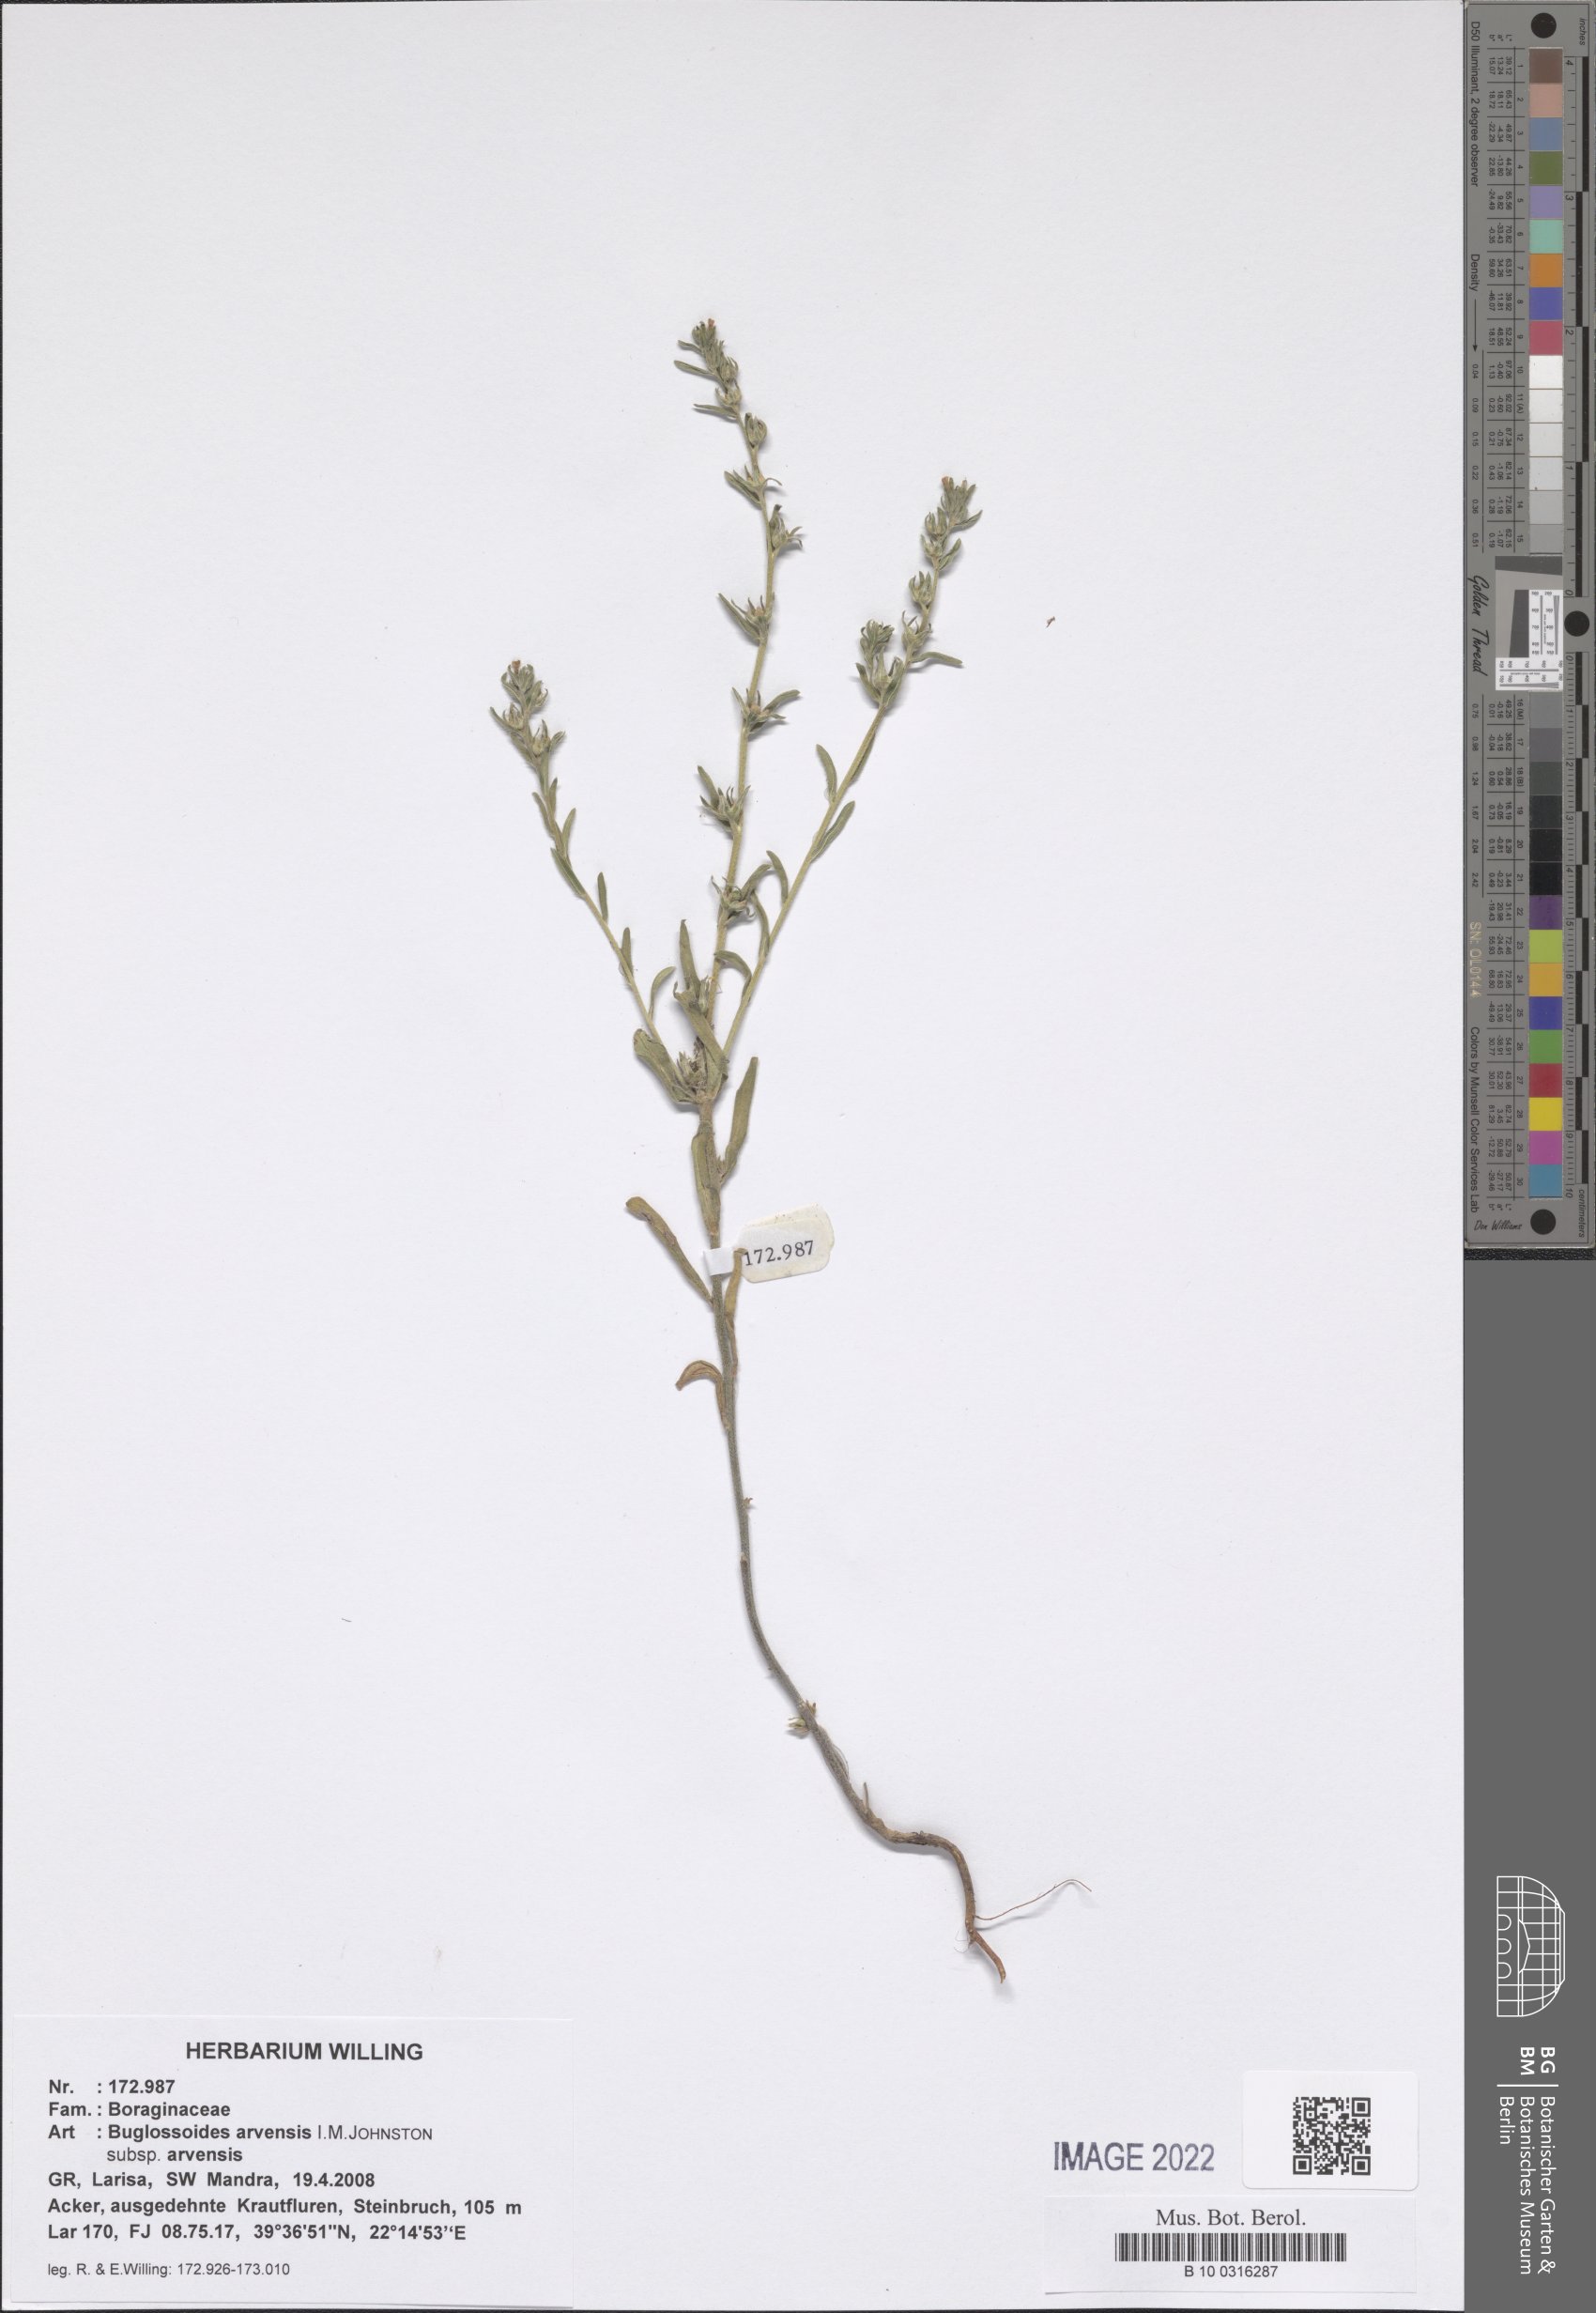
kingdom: Plantae
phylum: Tracheophyta
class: Magnoliopsida
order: Boraginales
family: Boraginaceae
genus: Buglossoides
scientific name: Buglossoides arvensis
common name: Corn gromwell
